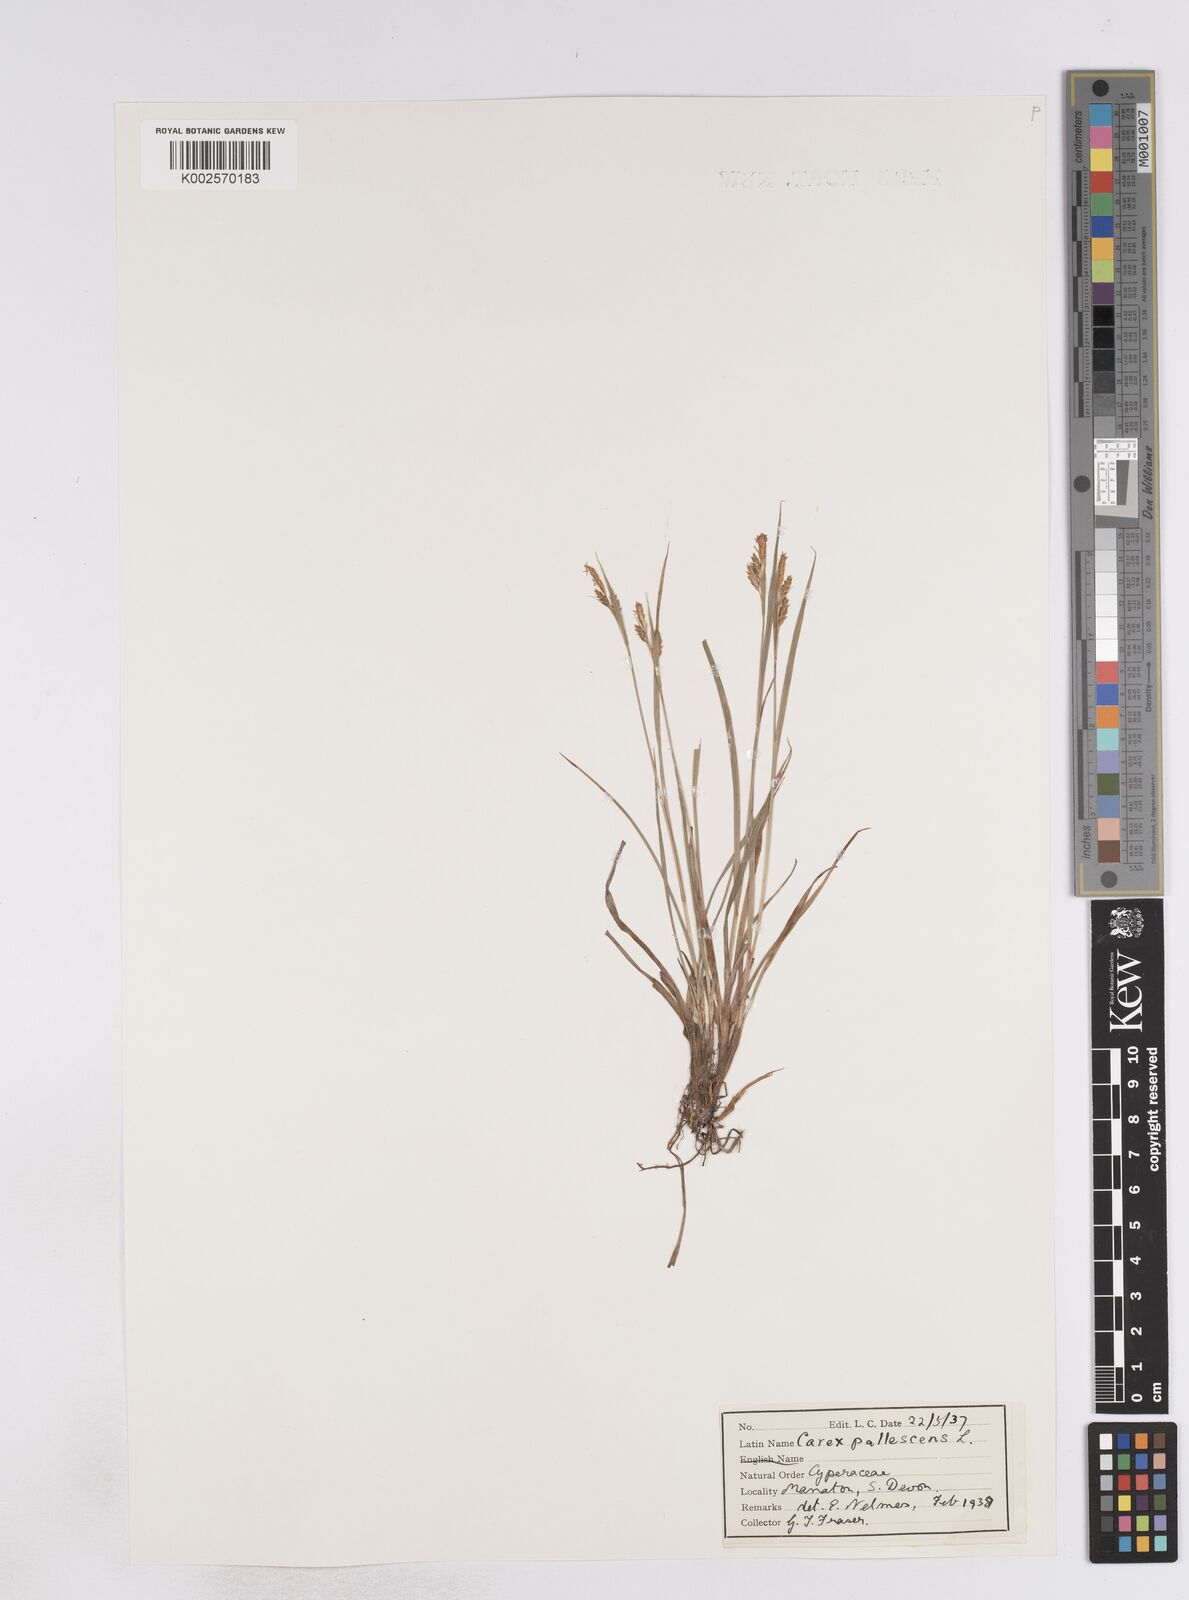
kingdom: Plantae
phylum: Tracheophyta
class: Liliopsida
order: Poales
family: Cyperaceae
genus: Carex
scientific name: Carex pallescens
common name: Pale sedge
